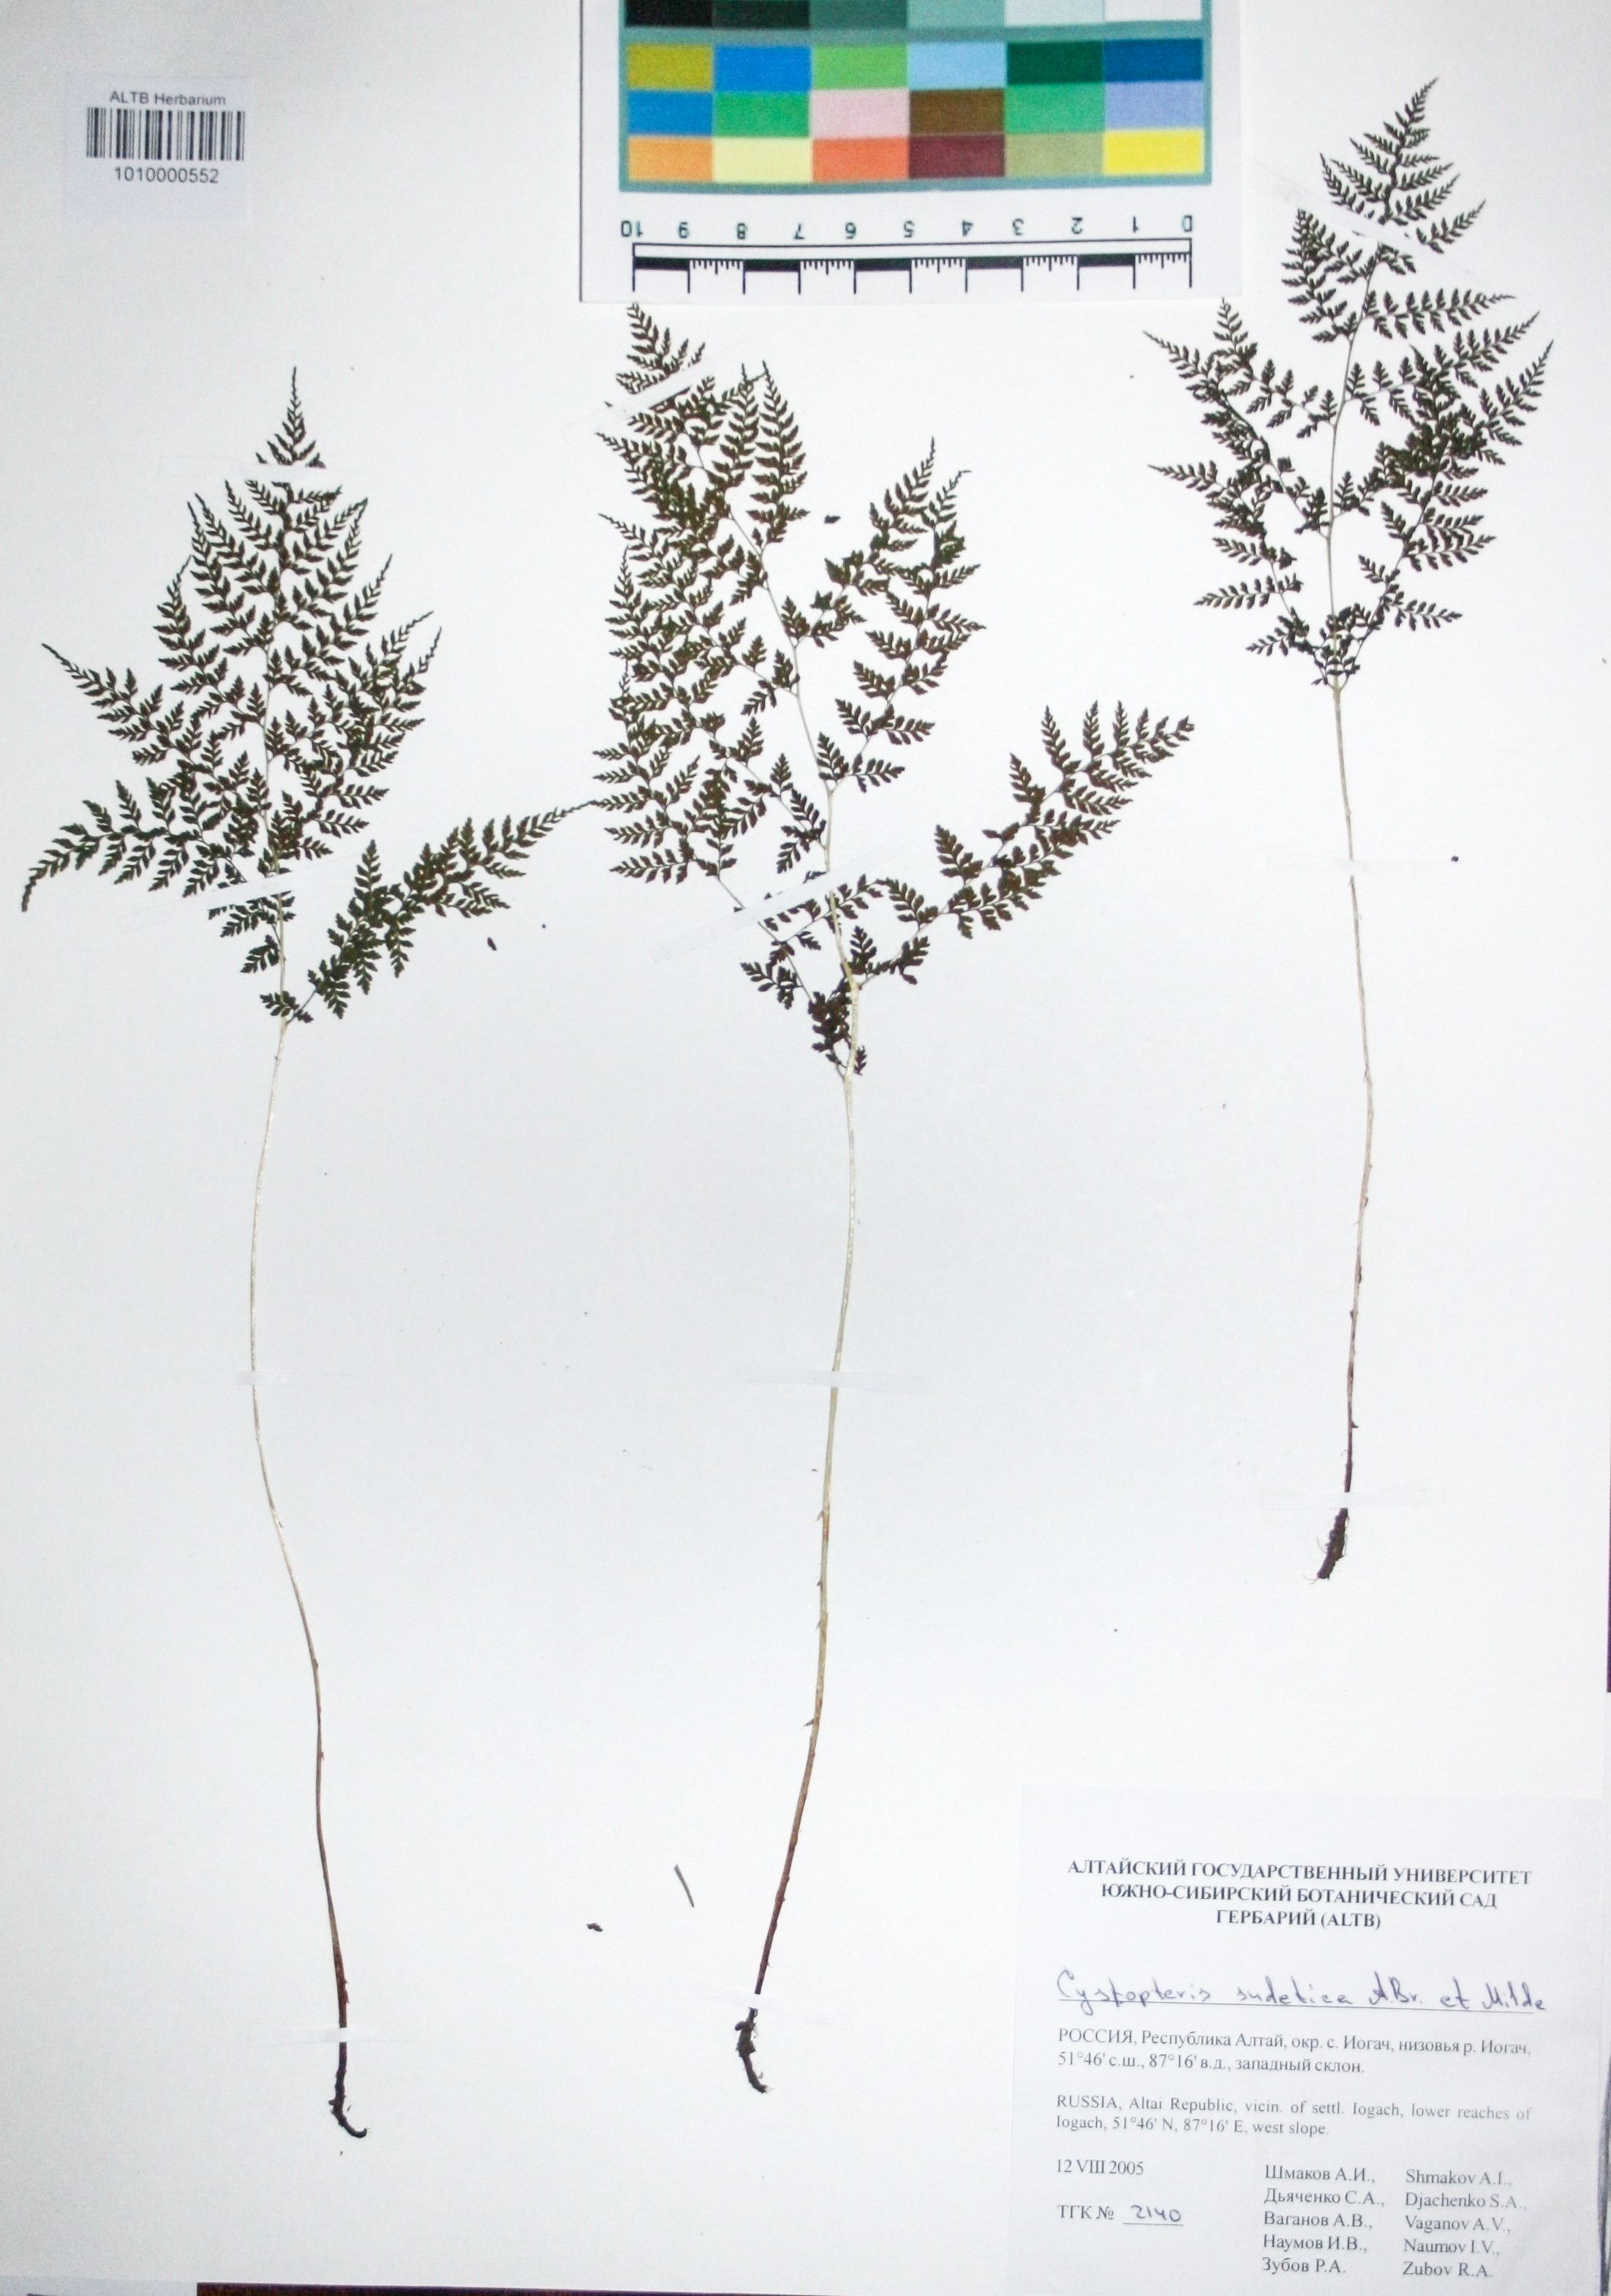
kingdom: Plantae
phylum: Tracheophyta
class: Polypodiopsida
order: Polypodiales
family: Cystopteridaceae
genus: Cystopteris
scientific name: Cystopteris sudetica
